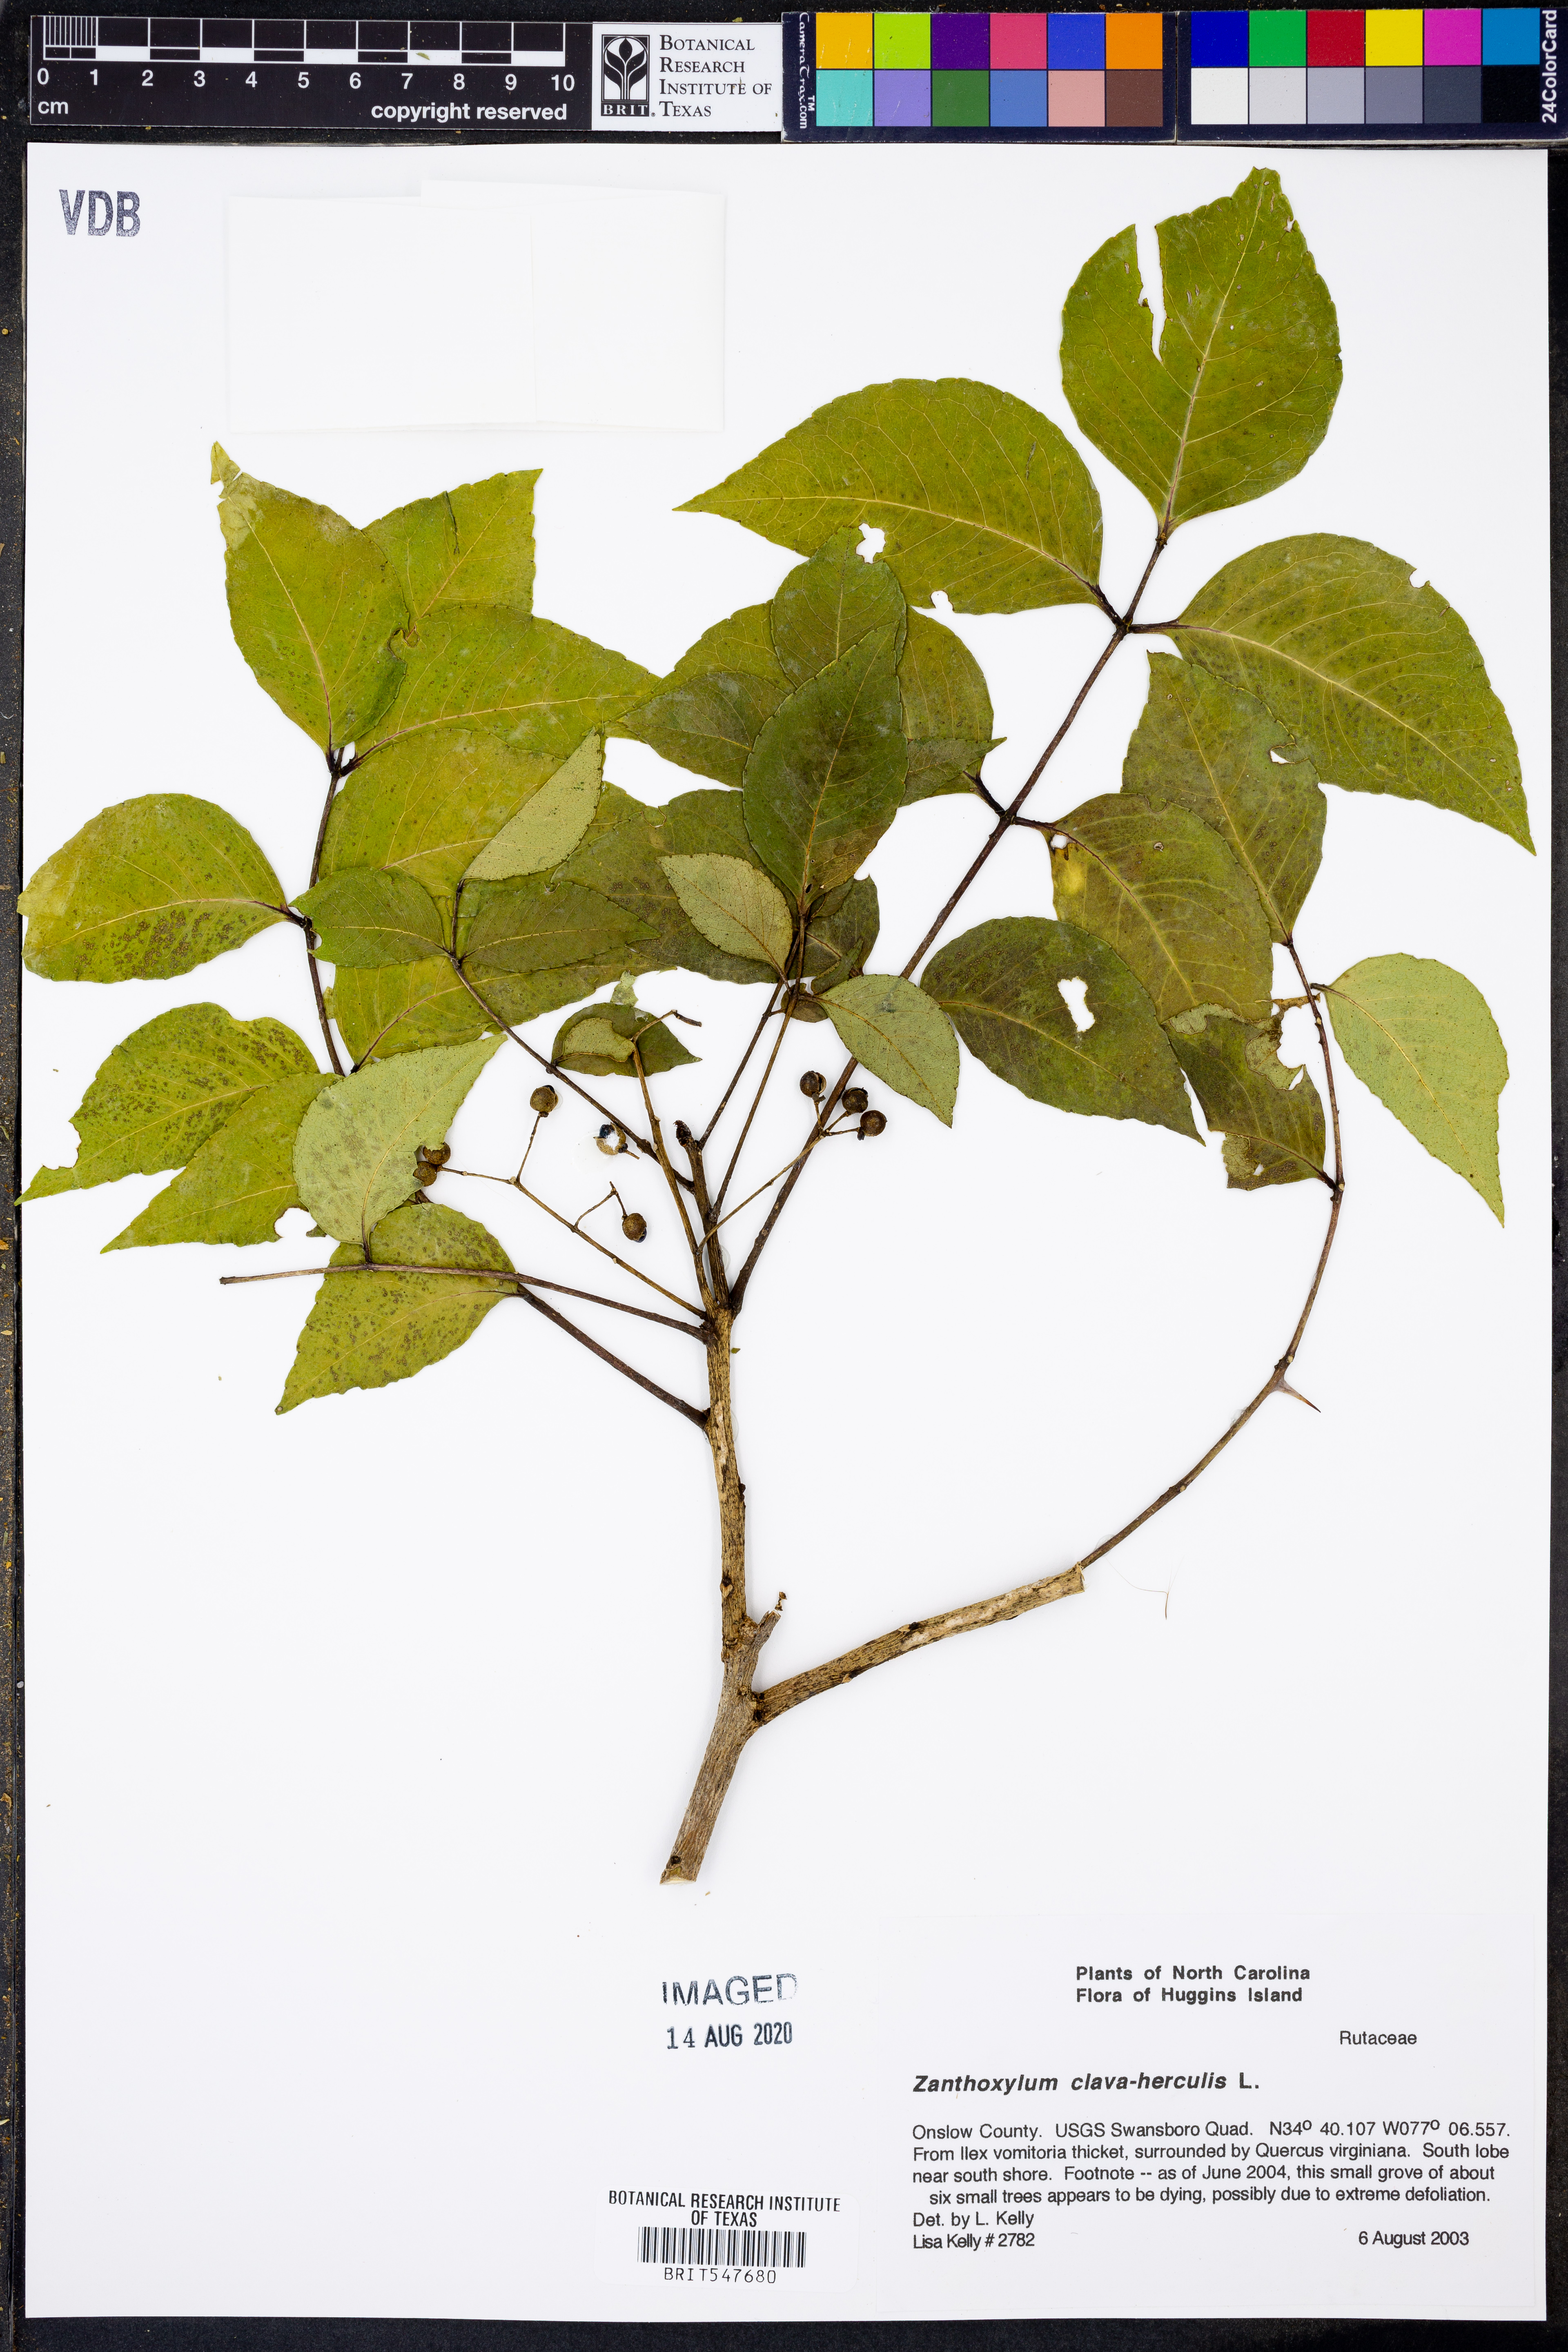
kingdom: Plantae
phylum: Tracheophyta
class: Magnoliopsida
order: Sapindales
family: Rutaceae
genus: Zanthoxylum
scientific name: Zanthoxylum avicennae
